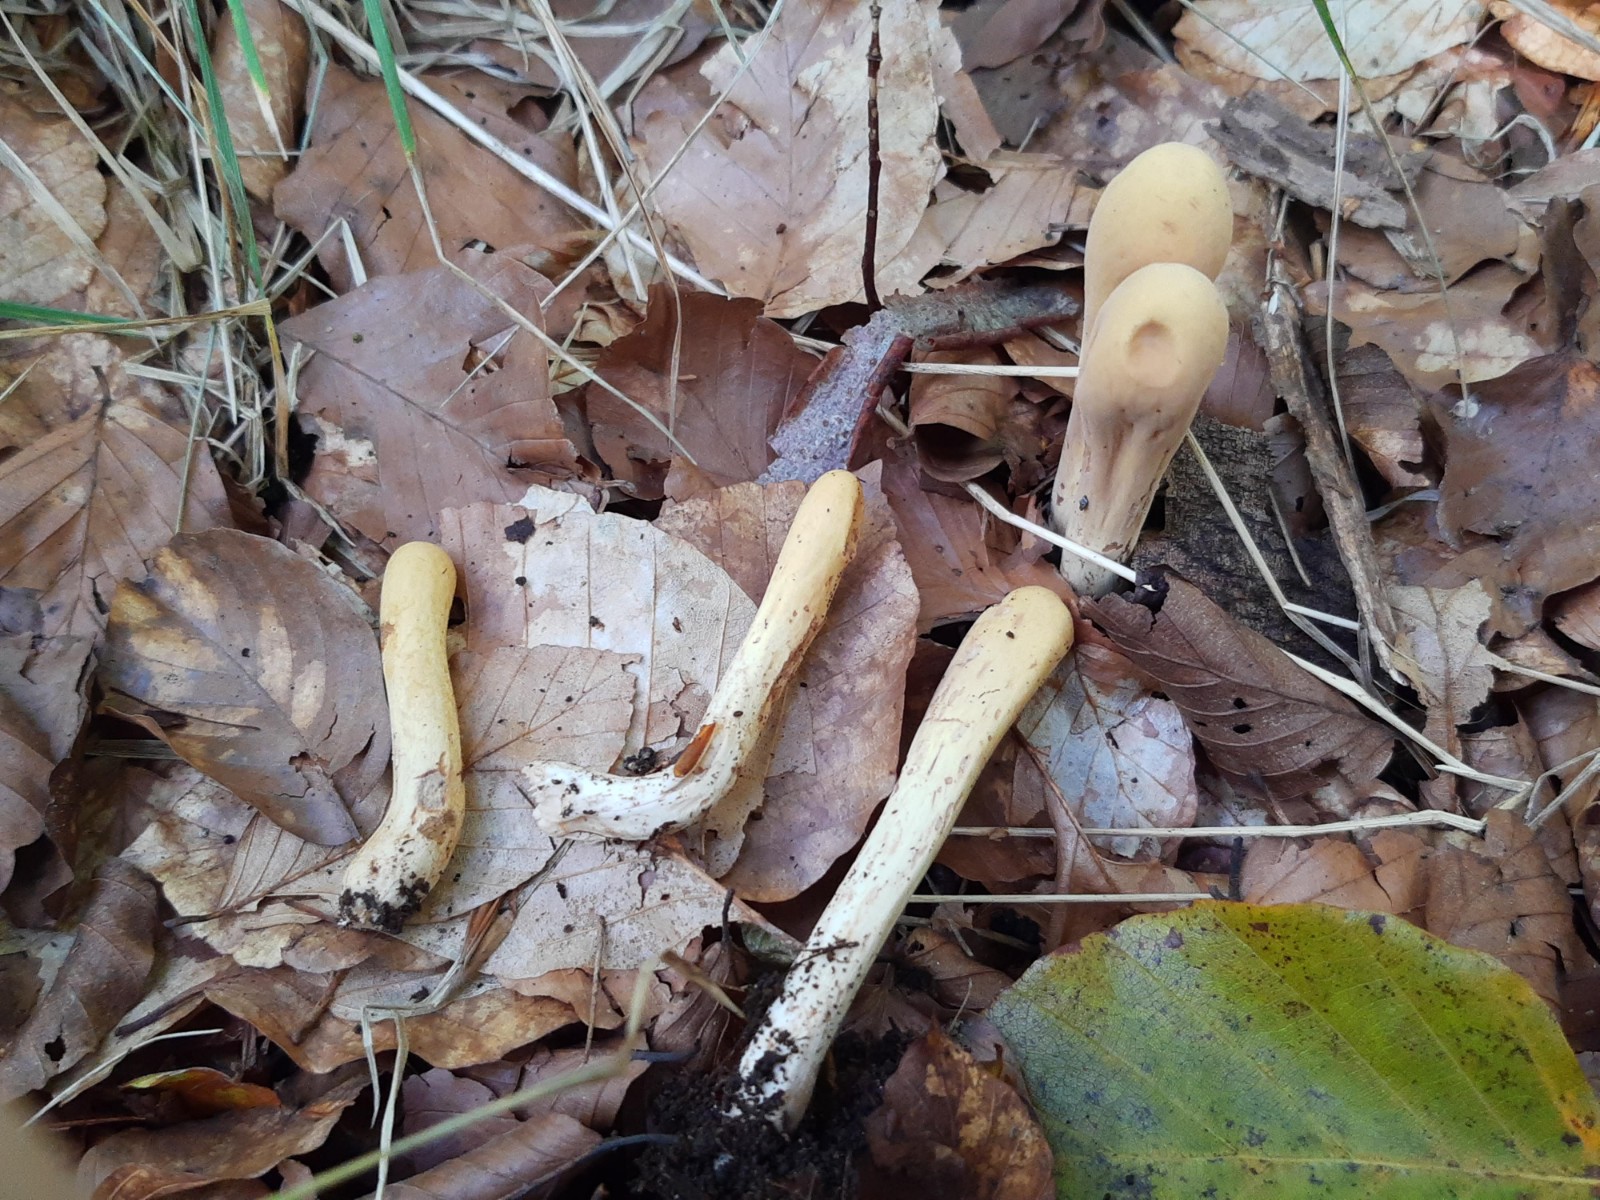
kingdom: Fungi
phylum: Basidiomycota
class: Agaricomycetes
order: Gomphales
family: Clavariadelphaceae
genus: Clavariadelphus
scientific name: Clavariadelphus pistillaris
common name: herkules-kæmpekølle
